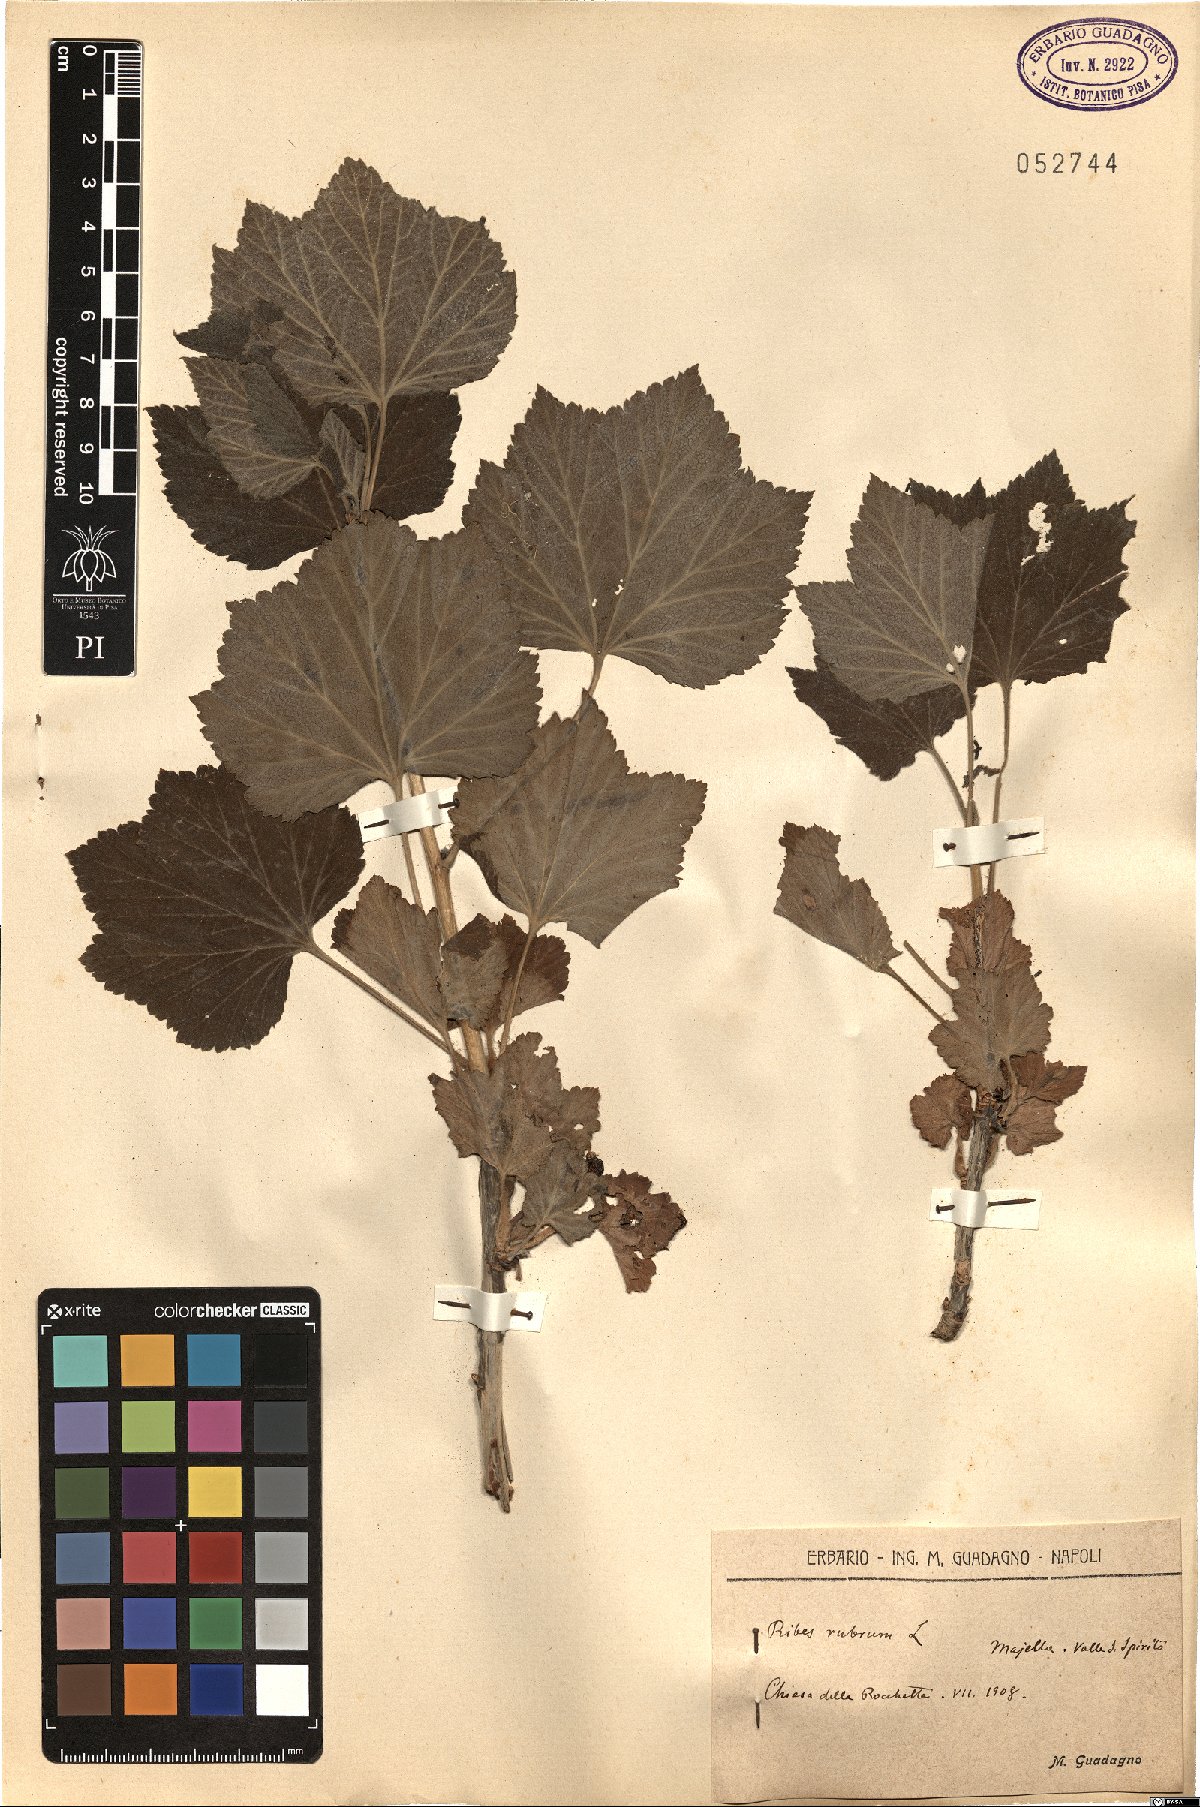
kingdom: Plantae
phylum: Tracheophyta
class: Magnoliopsida
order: Saxifragales
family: Grossulariaceae
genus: Ribes
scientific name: Ribes rubrum
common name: Red currant
